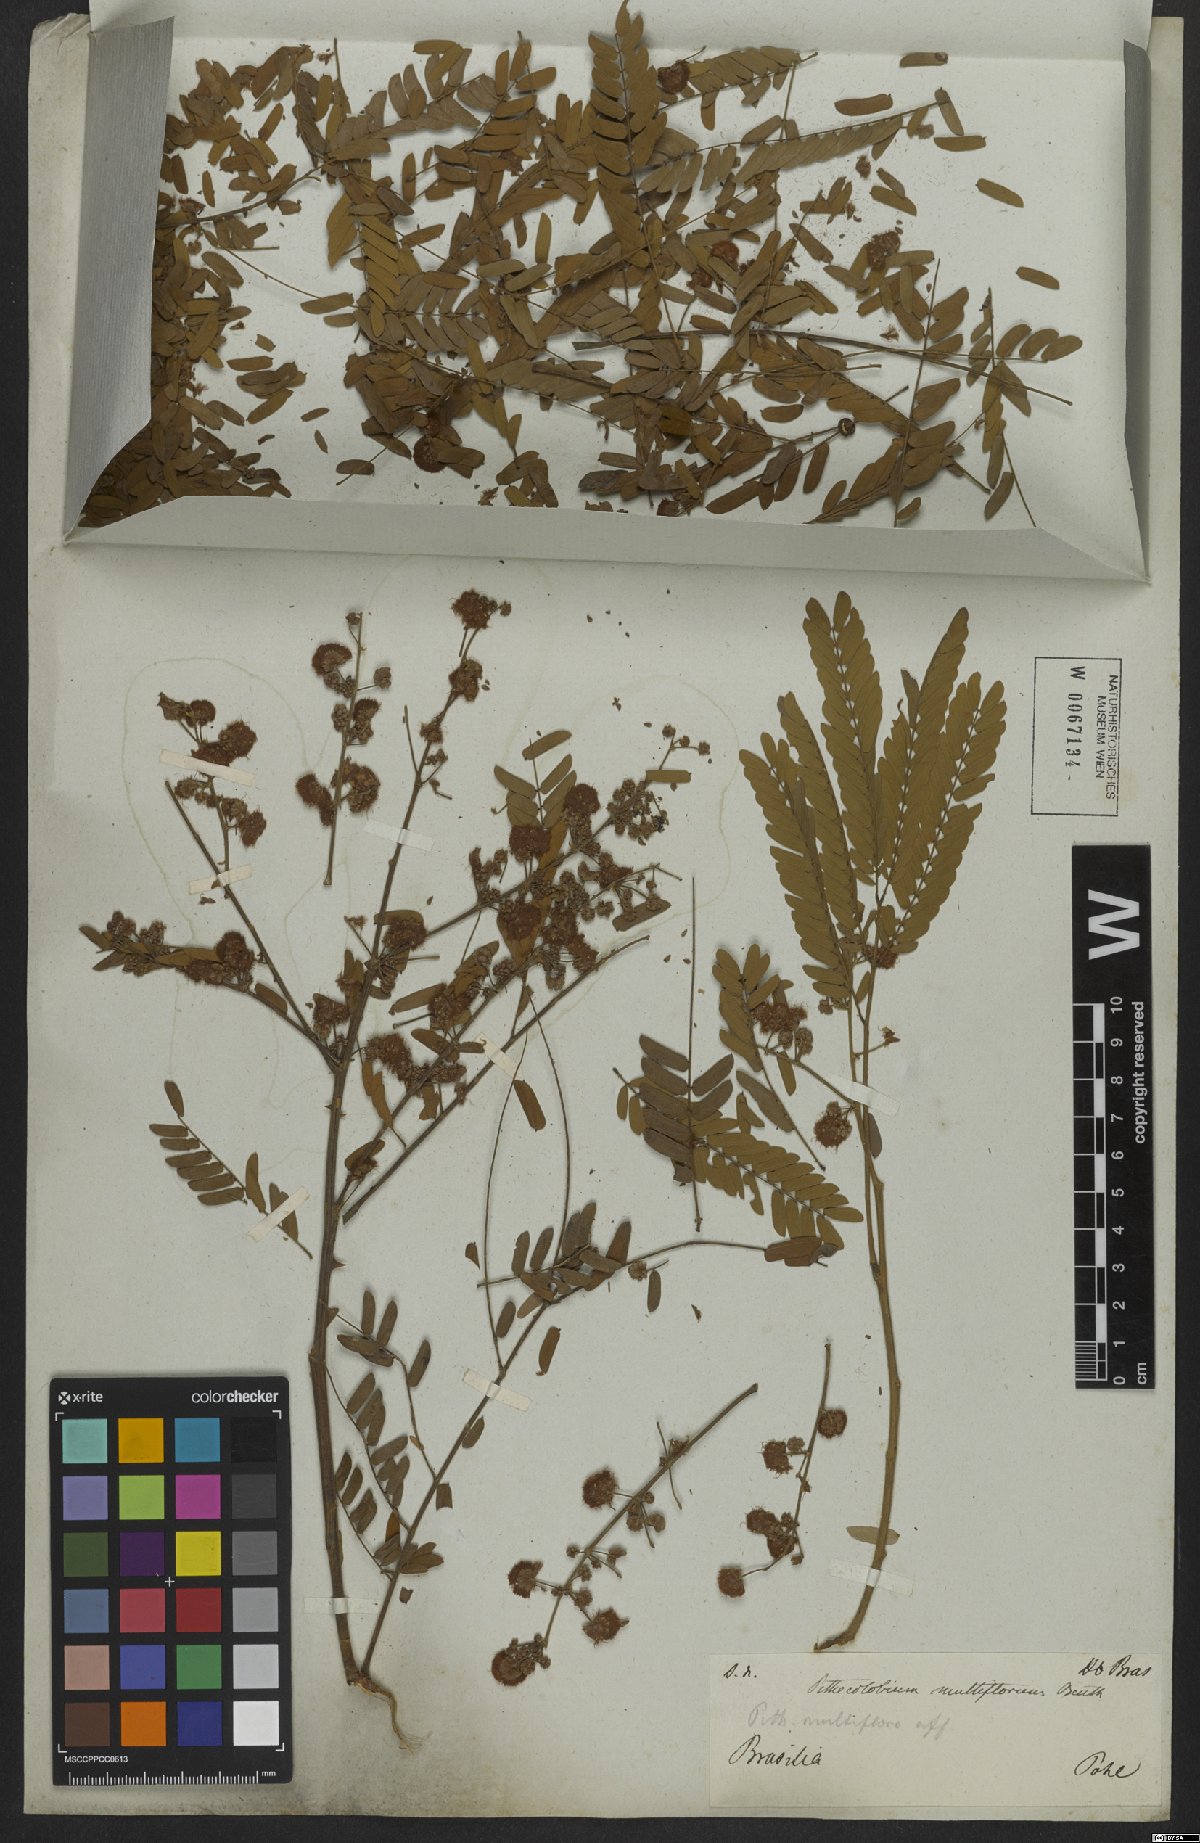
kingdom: Plantae
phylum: Tracheophyta
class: Magnoliopsida
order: Fabales
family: Fabaceae
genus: Albizia
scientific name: Albizia multiflora
